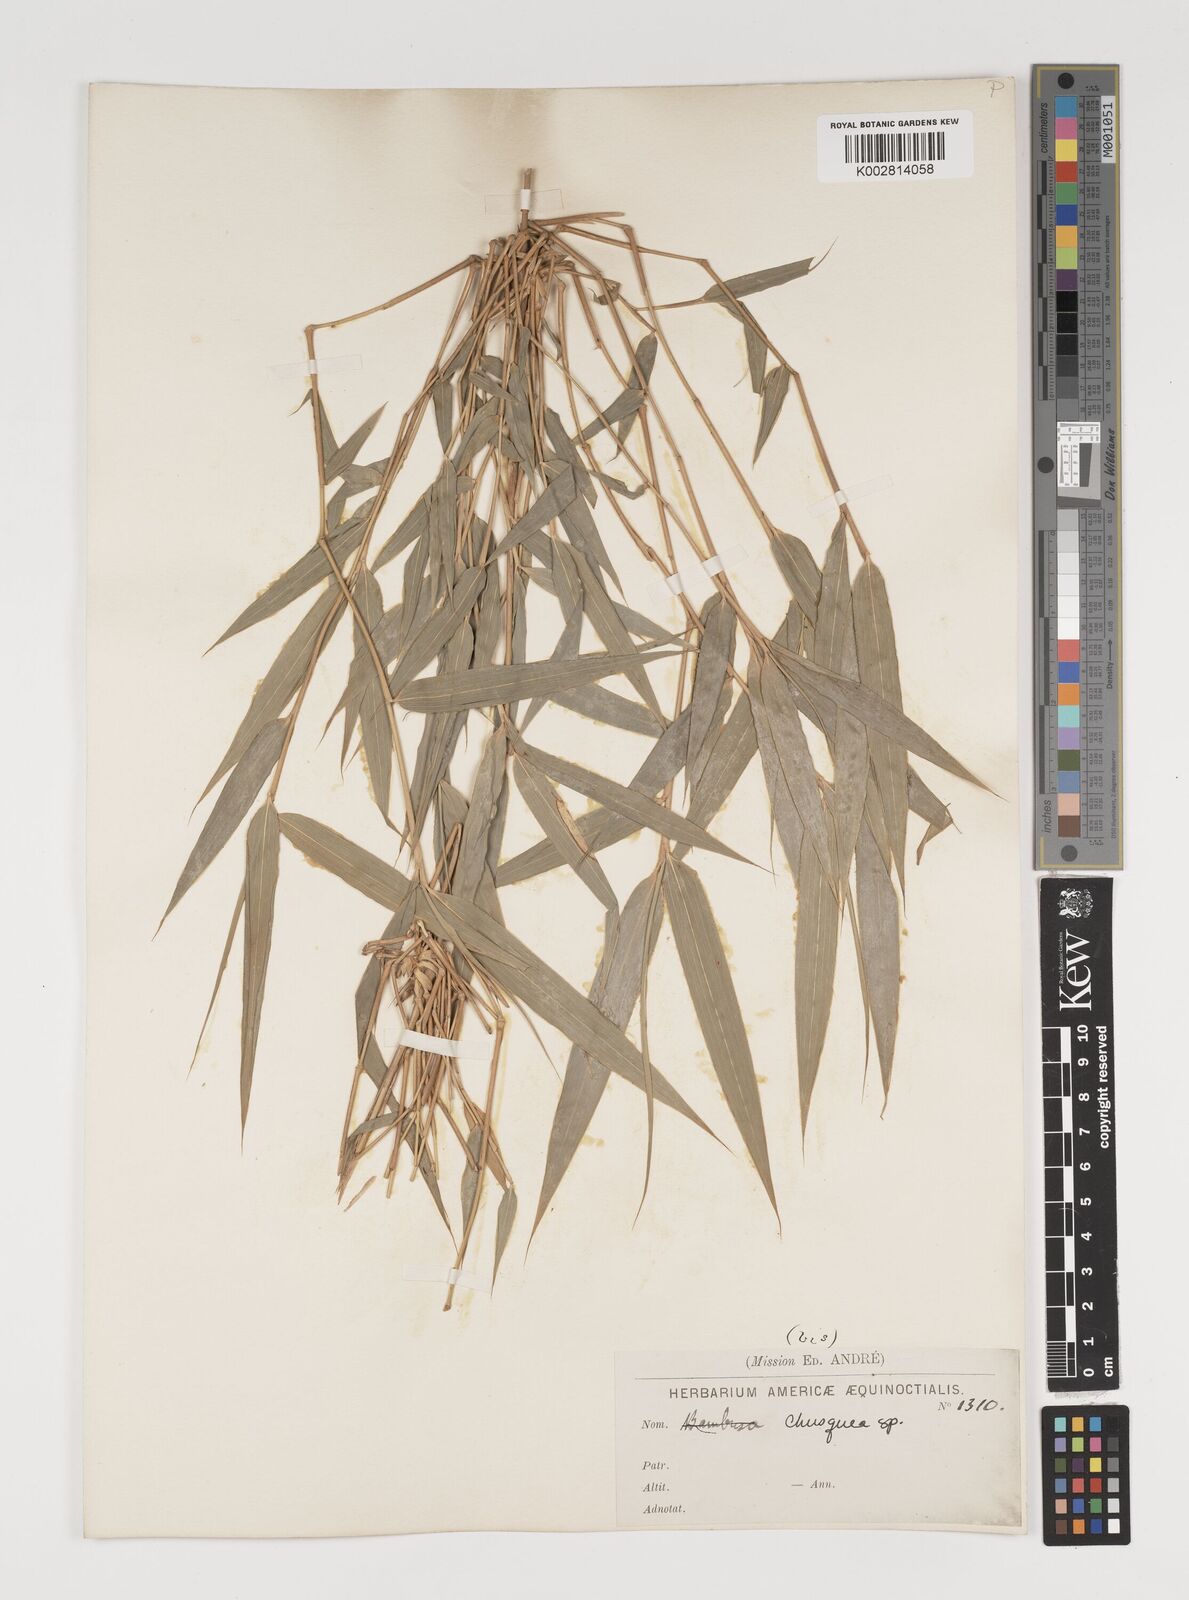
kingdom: Plantae
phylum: Tracheophyta
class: Liliopsida
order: Poales
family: Poaceae
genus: Chusquea
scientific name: Chusquea
